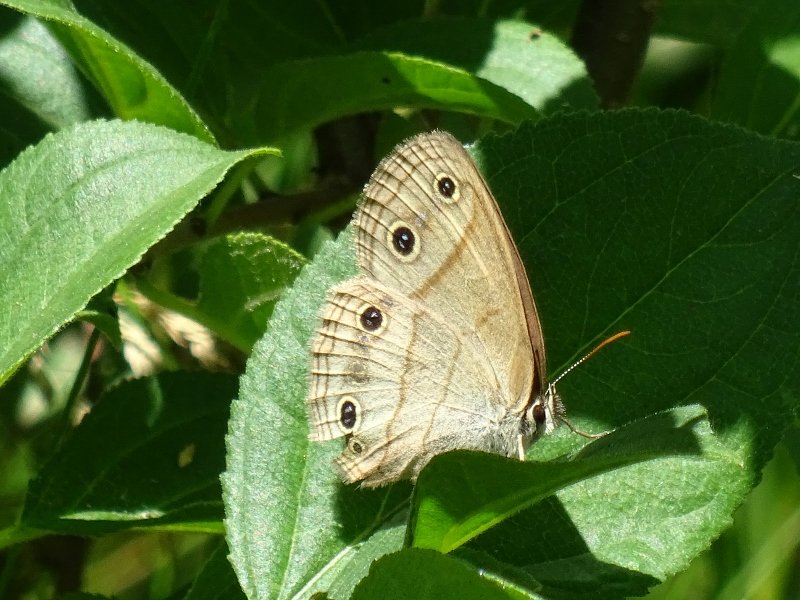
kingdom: Animalia
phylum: Arthropoda
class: Insecta
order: Lepidoptera
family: Nymphalidae
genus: Euptychia
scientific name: Euptychia cymela
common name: Little Wood Satyr
